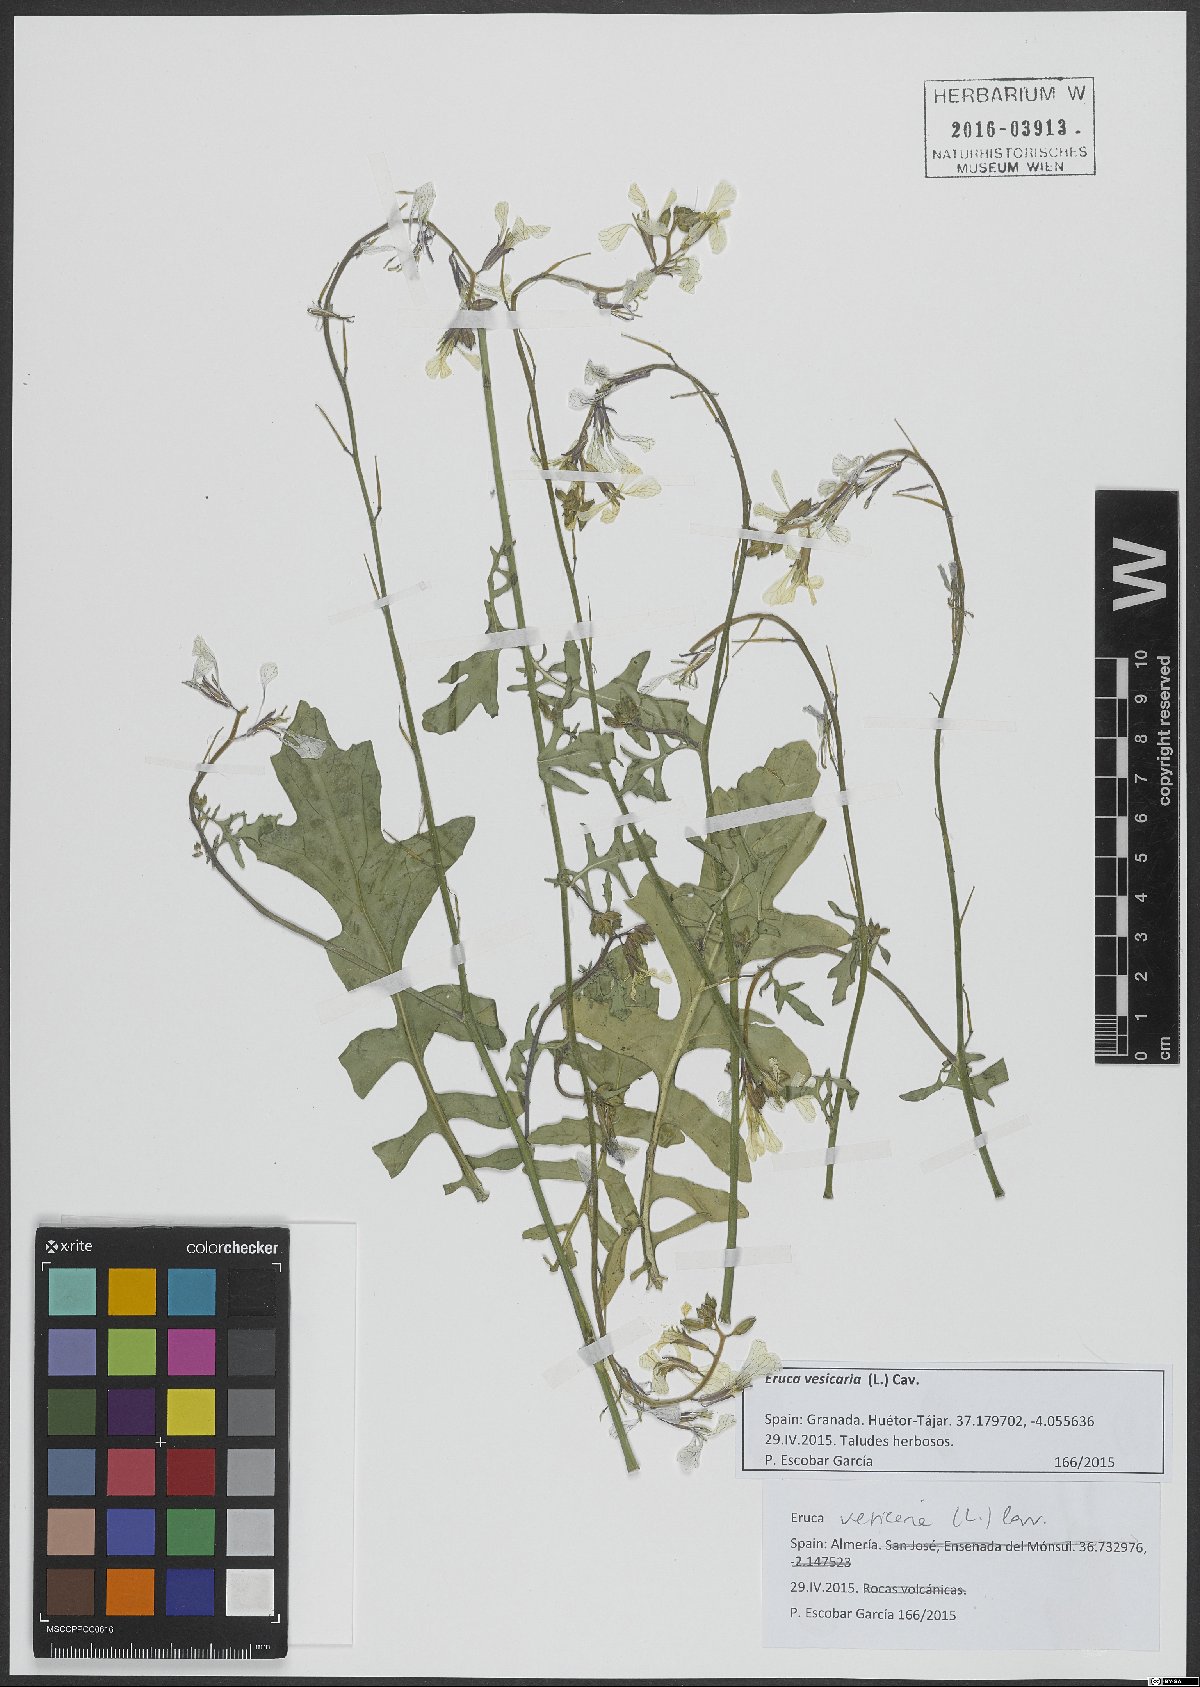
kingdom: Plantae
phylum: Tracheophyta
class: Magnoliopsida
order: Brassicales
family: Brassicaceae
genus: Eruca
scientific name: Eruca vesicaria
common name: Garden rocket
